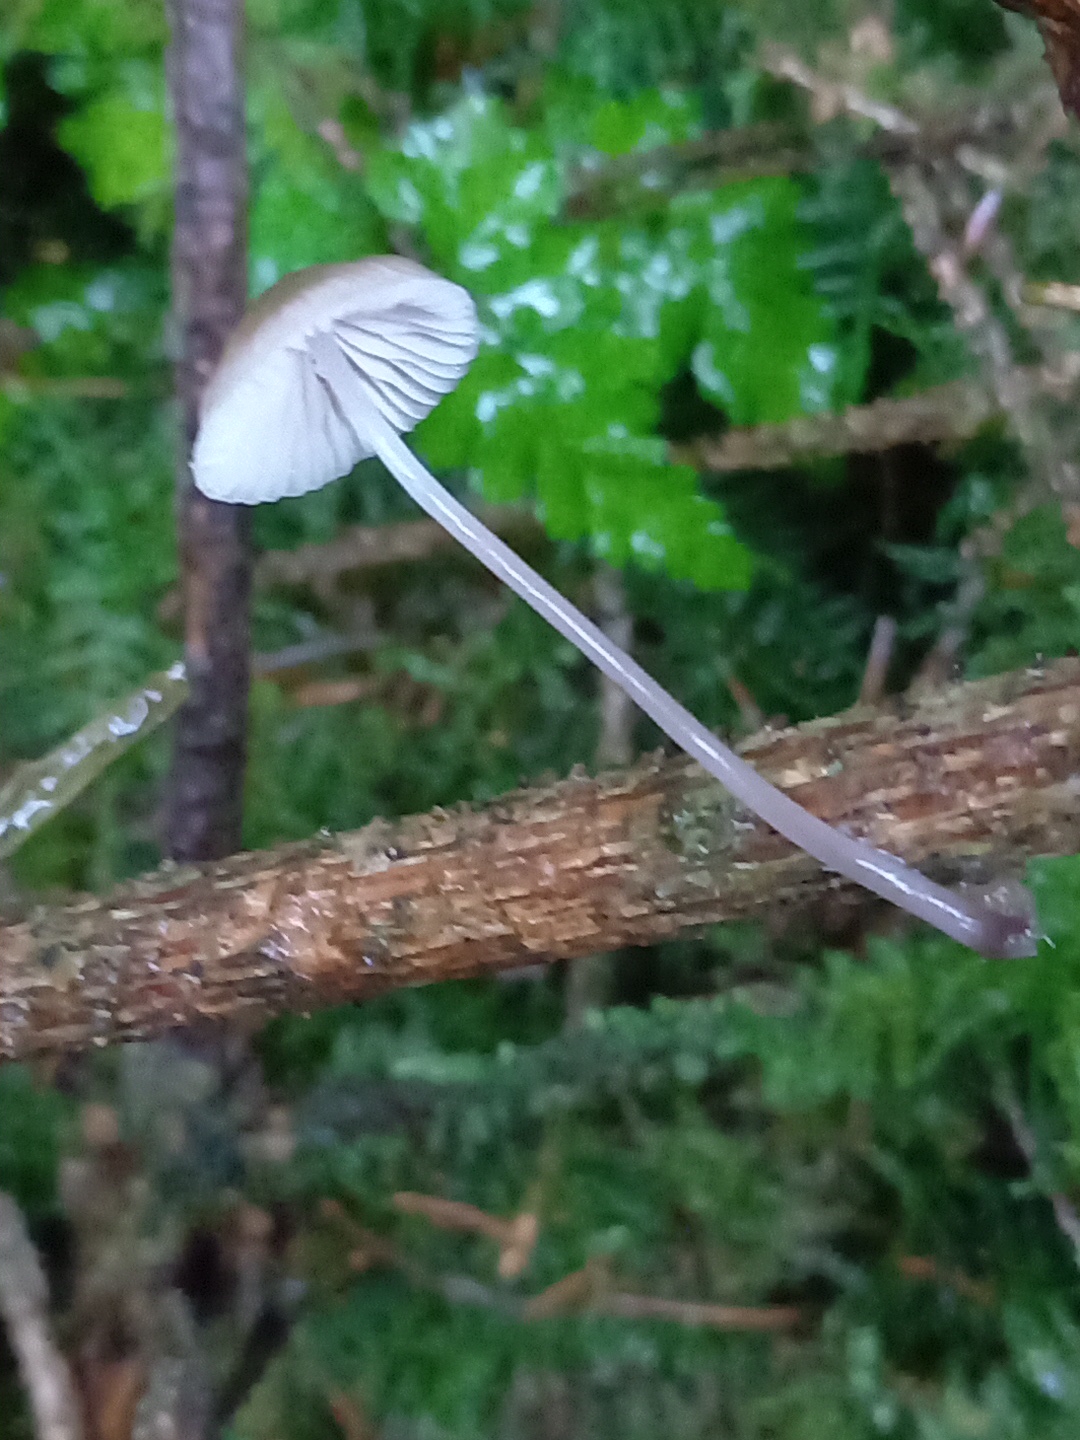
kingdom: Fungi
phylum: Basidiomycota
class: Agaricomycetes
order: Agaricales
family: Mycenaceae
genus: Mycena
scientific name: Mycena
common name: huesvamp
